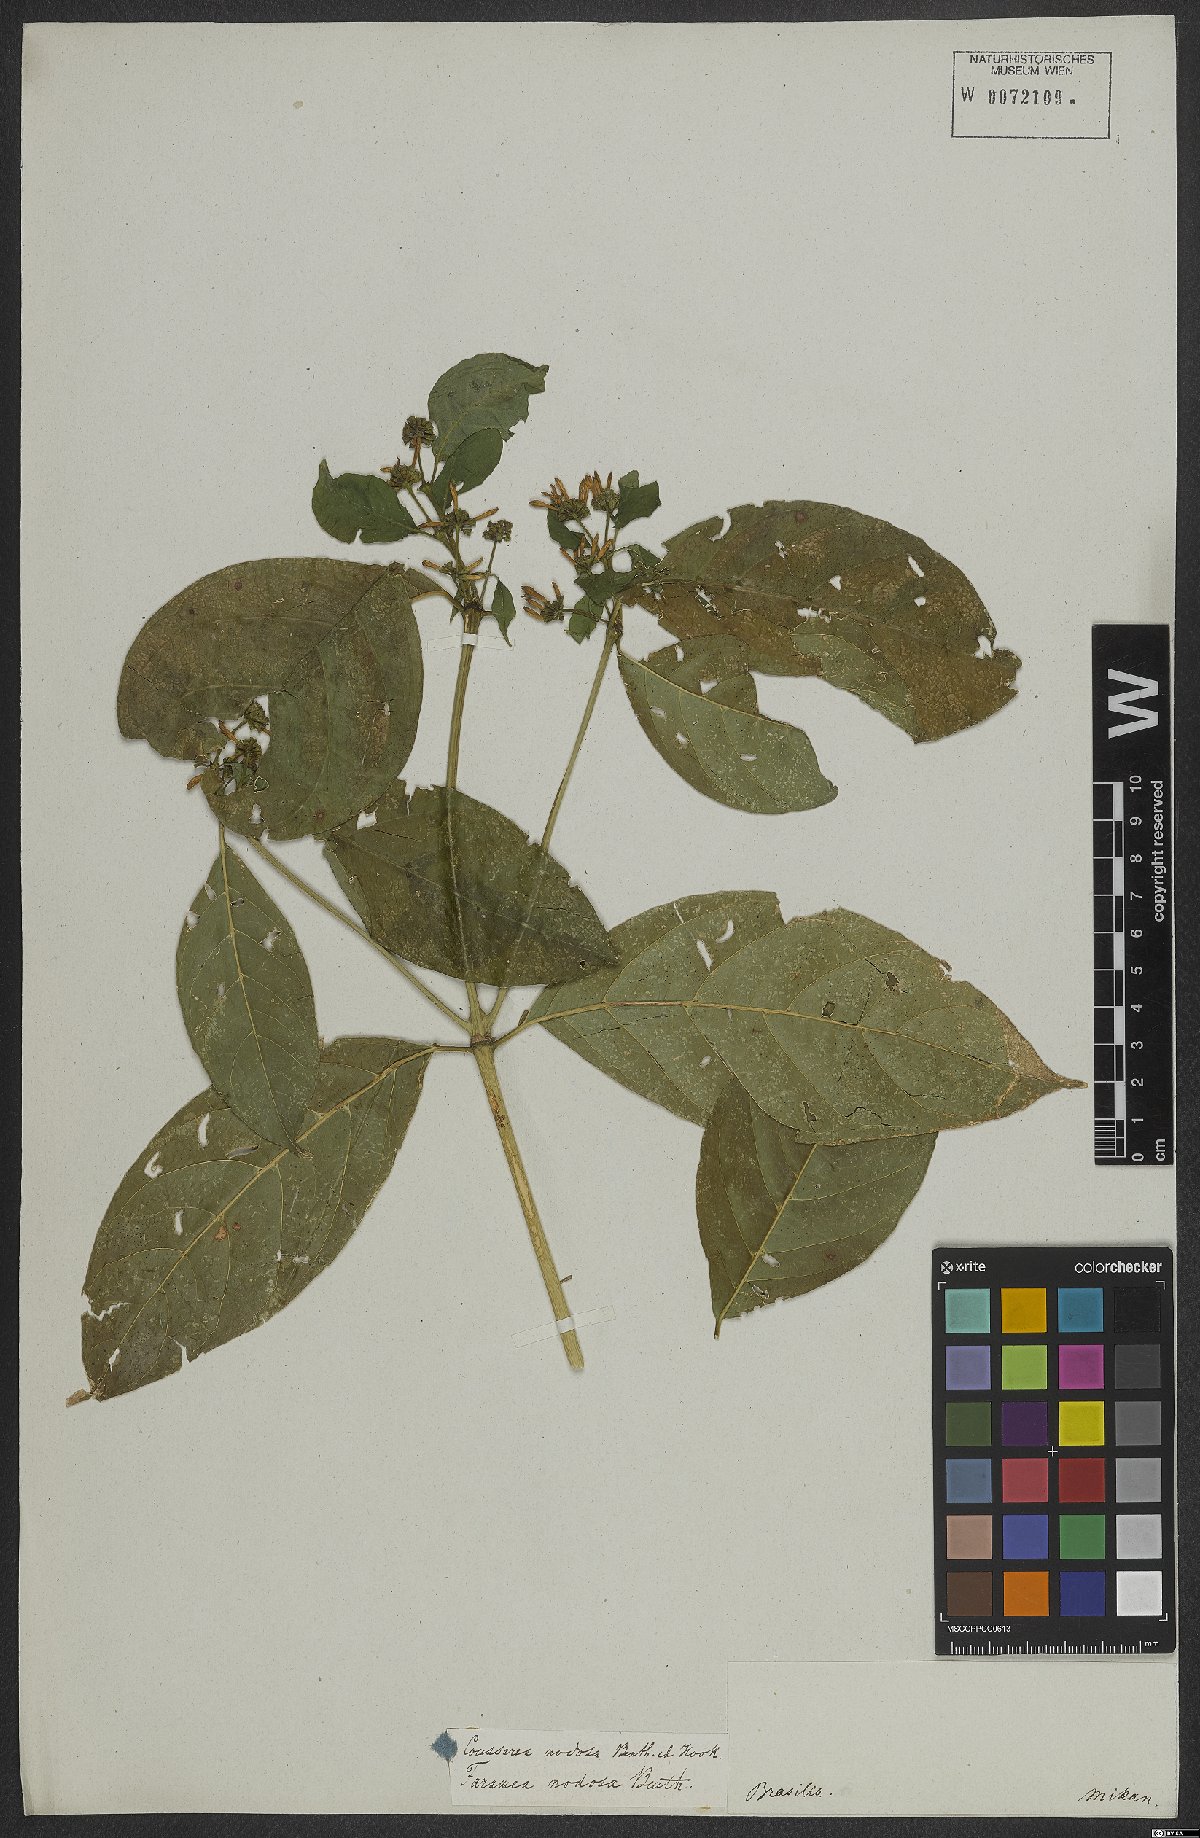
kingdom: Plantae
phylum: Tracheophyta
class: Magnoliopsida
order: Gentianales
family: Rubiaceae
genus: Coussarea
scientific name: Coussarea nodosa
